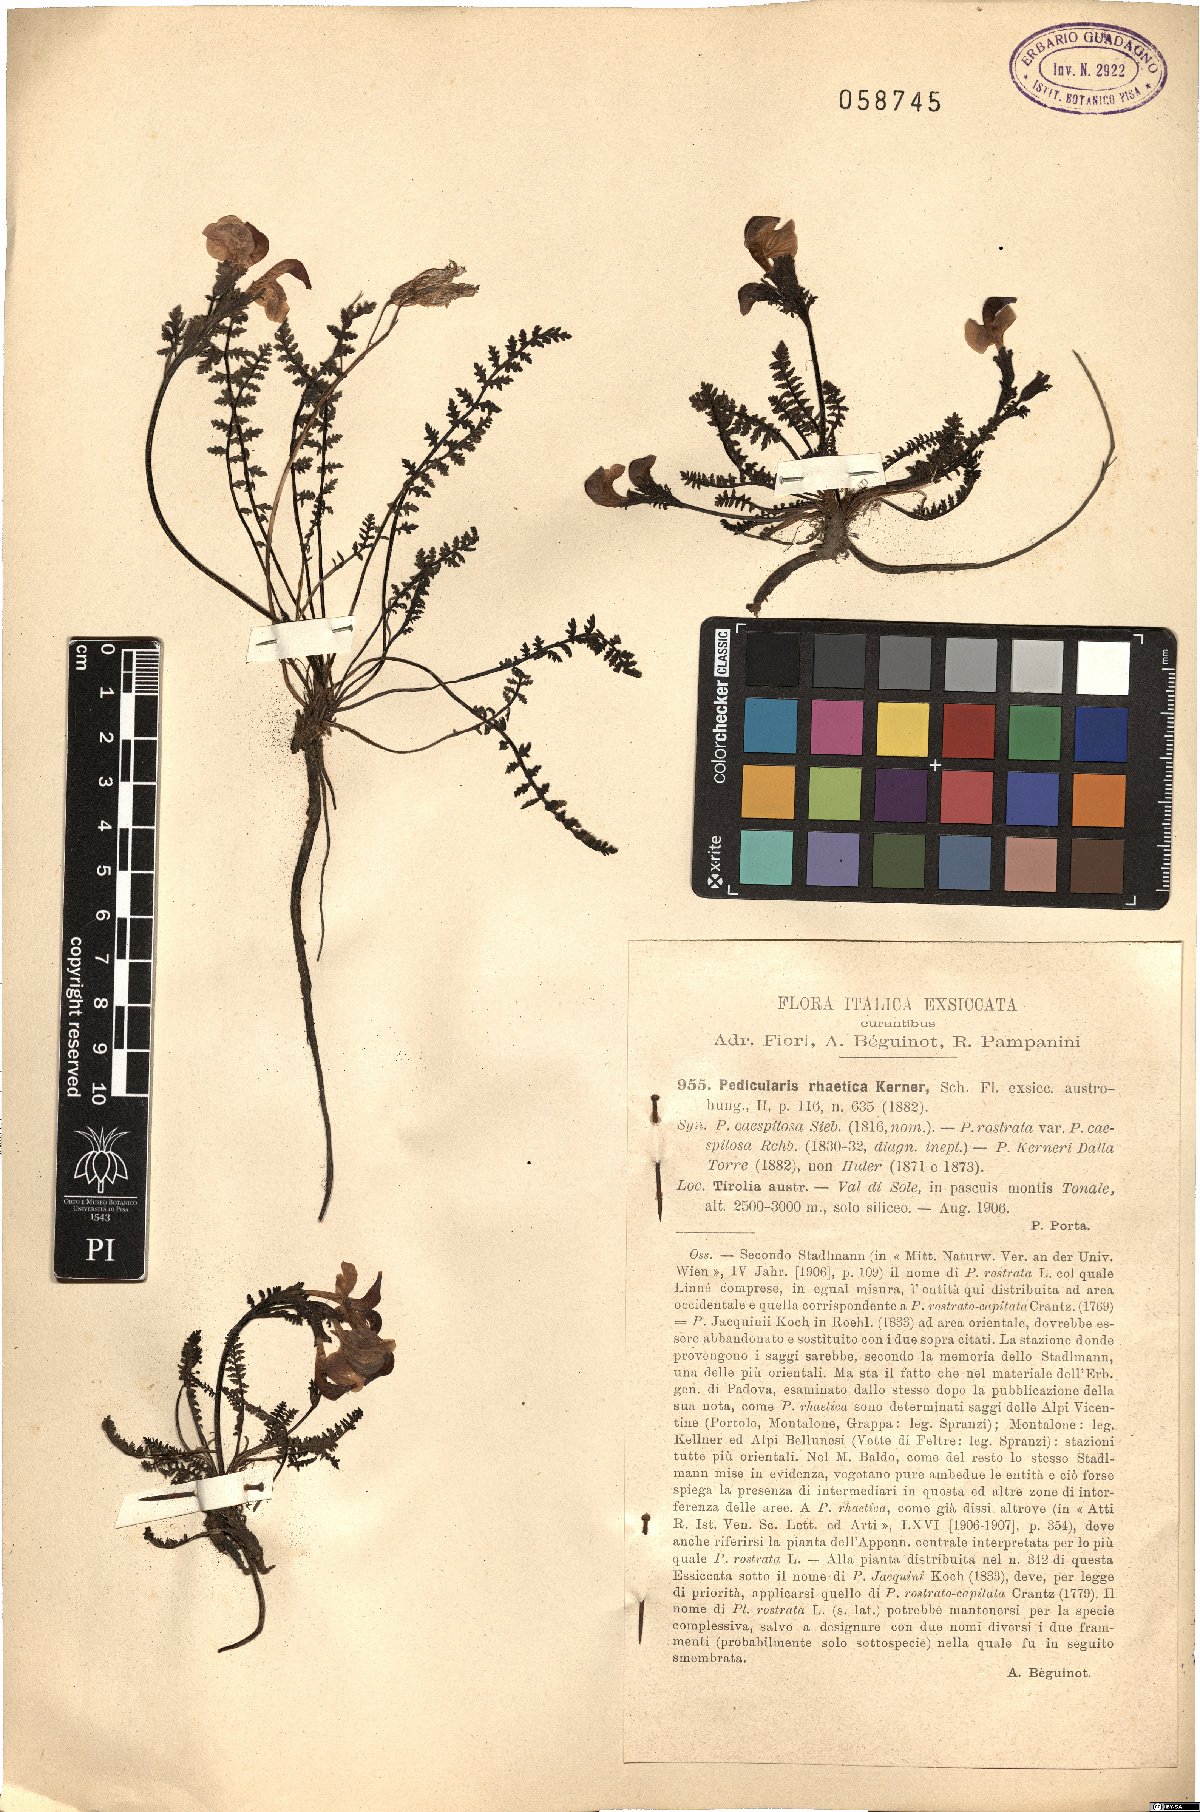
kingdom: Plantae
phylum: Tracheophyta
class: Magnoliopsida
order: Lamiales
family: Orobanchaceae
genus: Pedicularis
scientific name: Pedicularis kerneri
